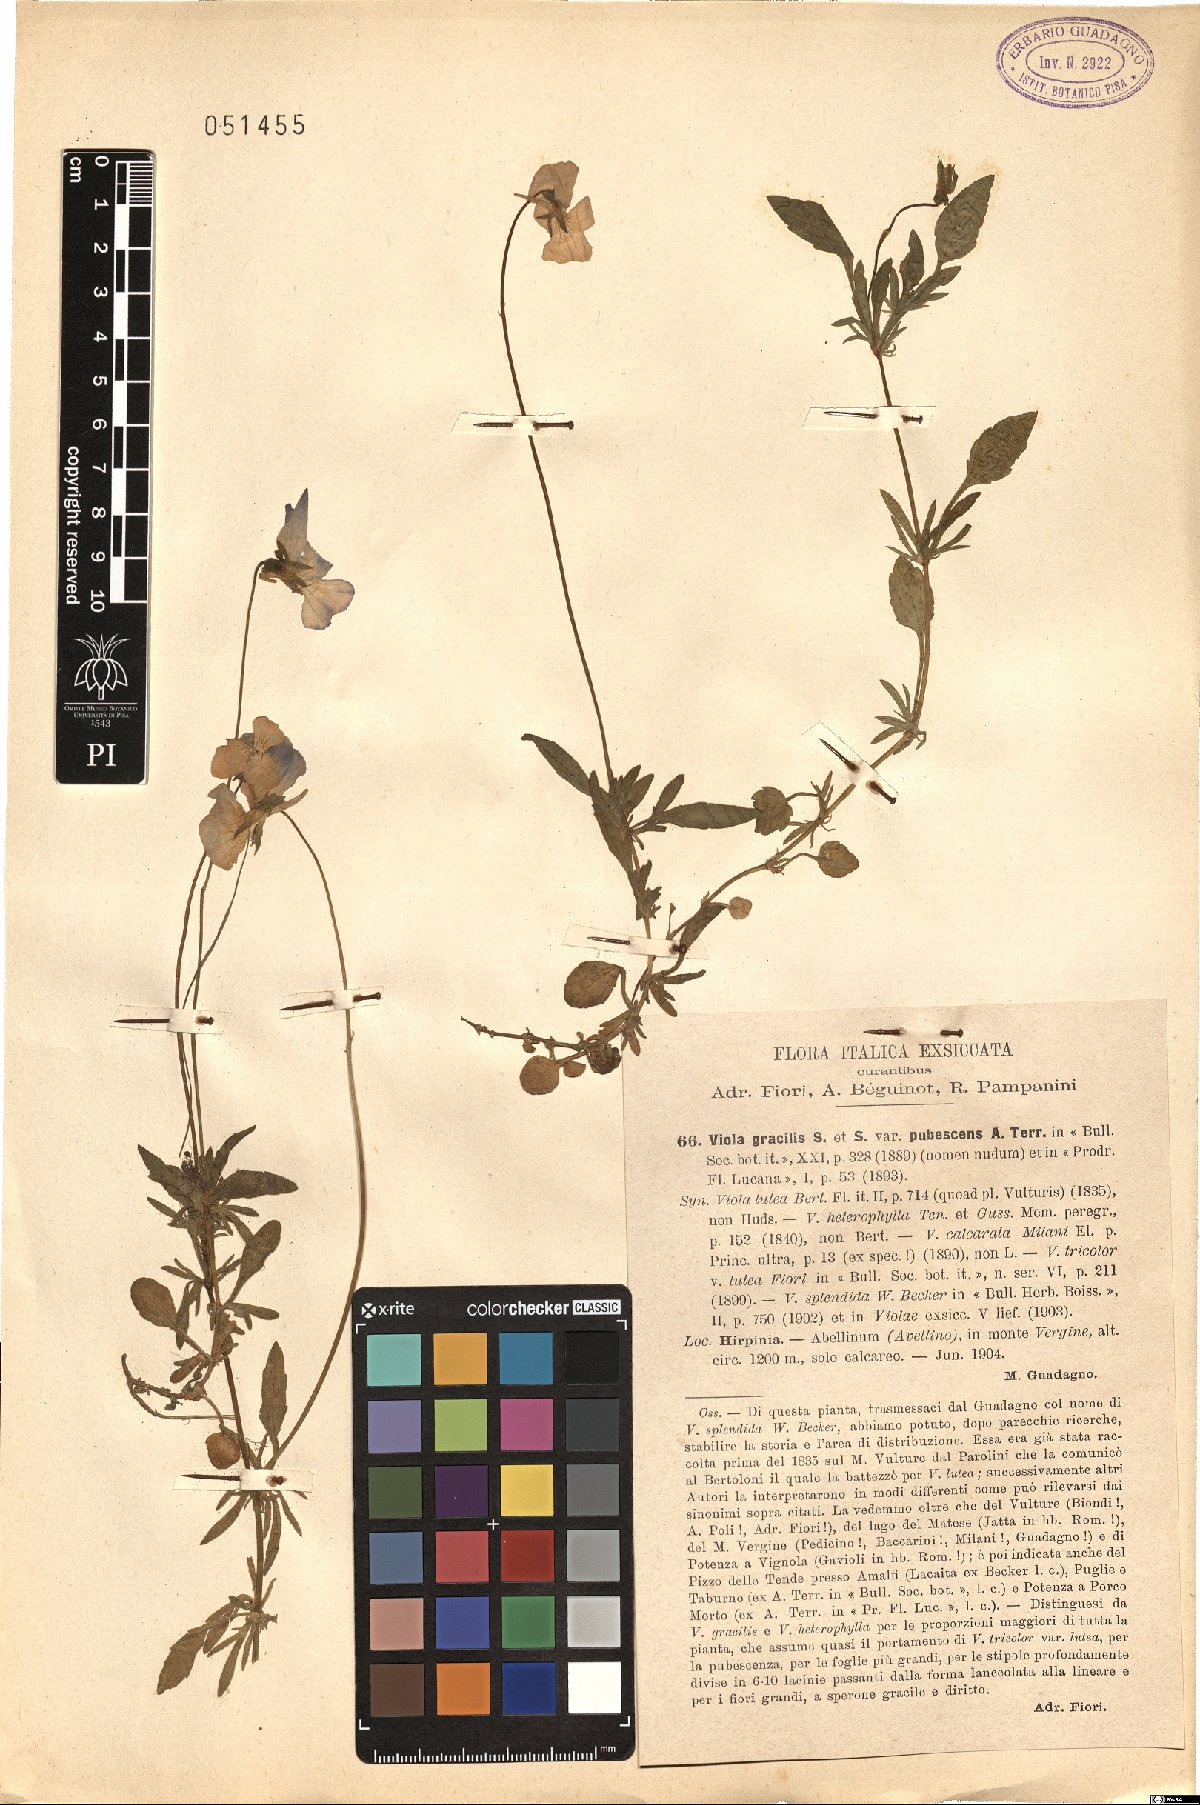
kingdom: Plantae
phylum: Tracheophyta
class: Magnoliopsida
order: Malpighiales
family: Violaceae
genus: Viola
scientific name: Viola aethnensis
